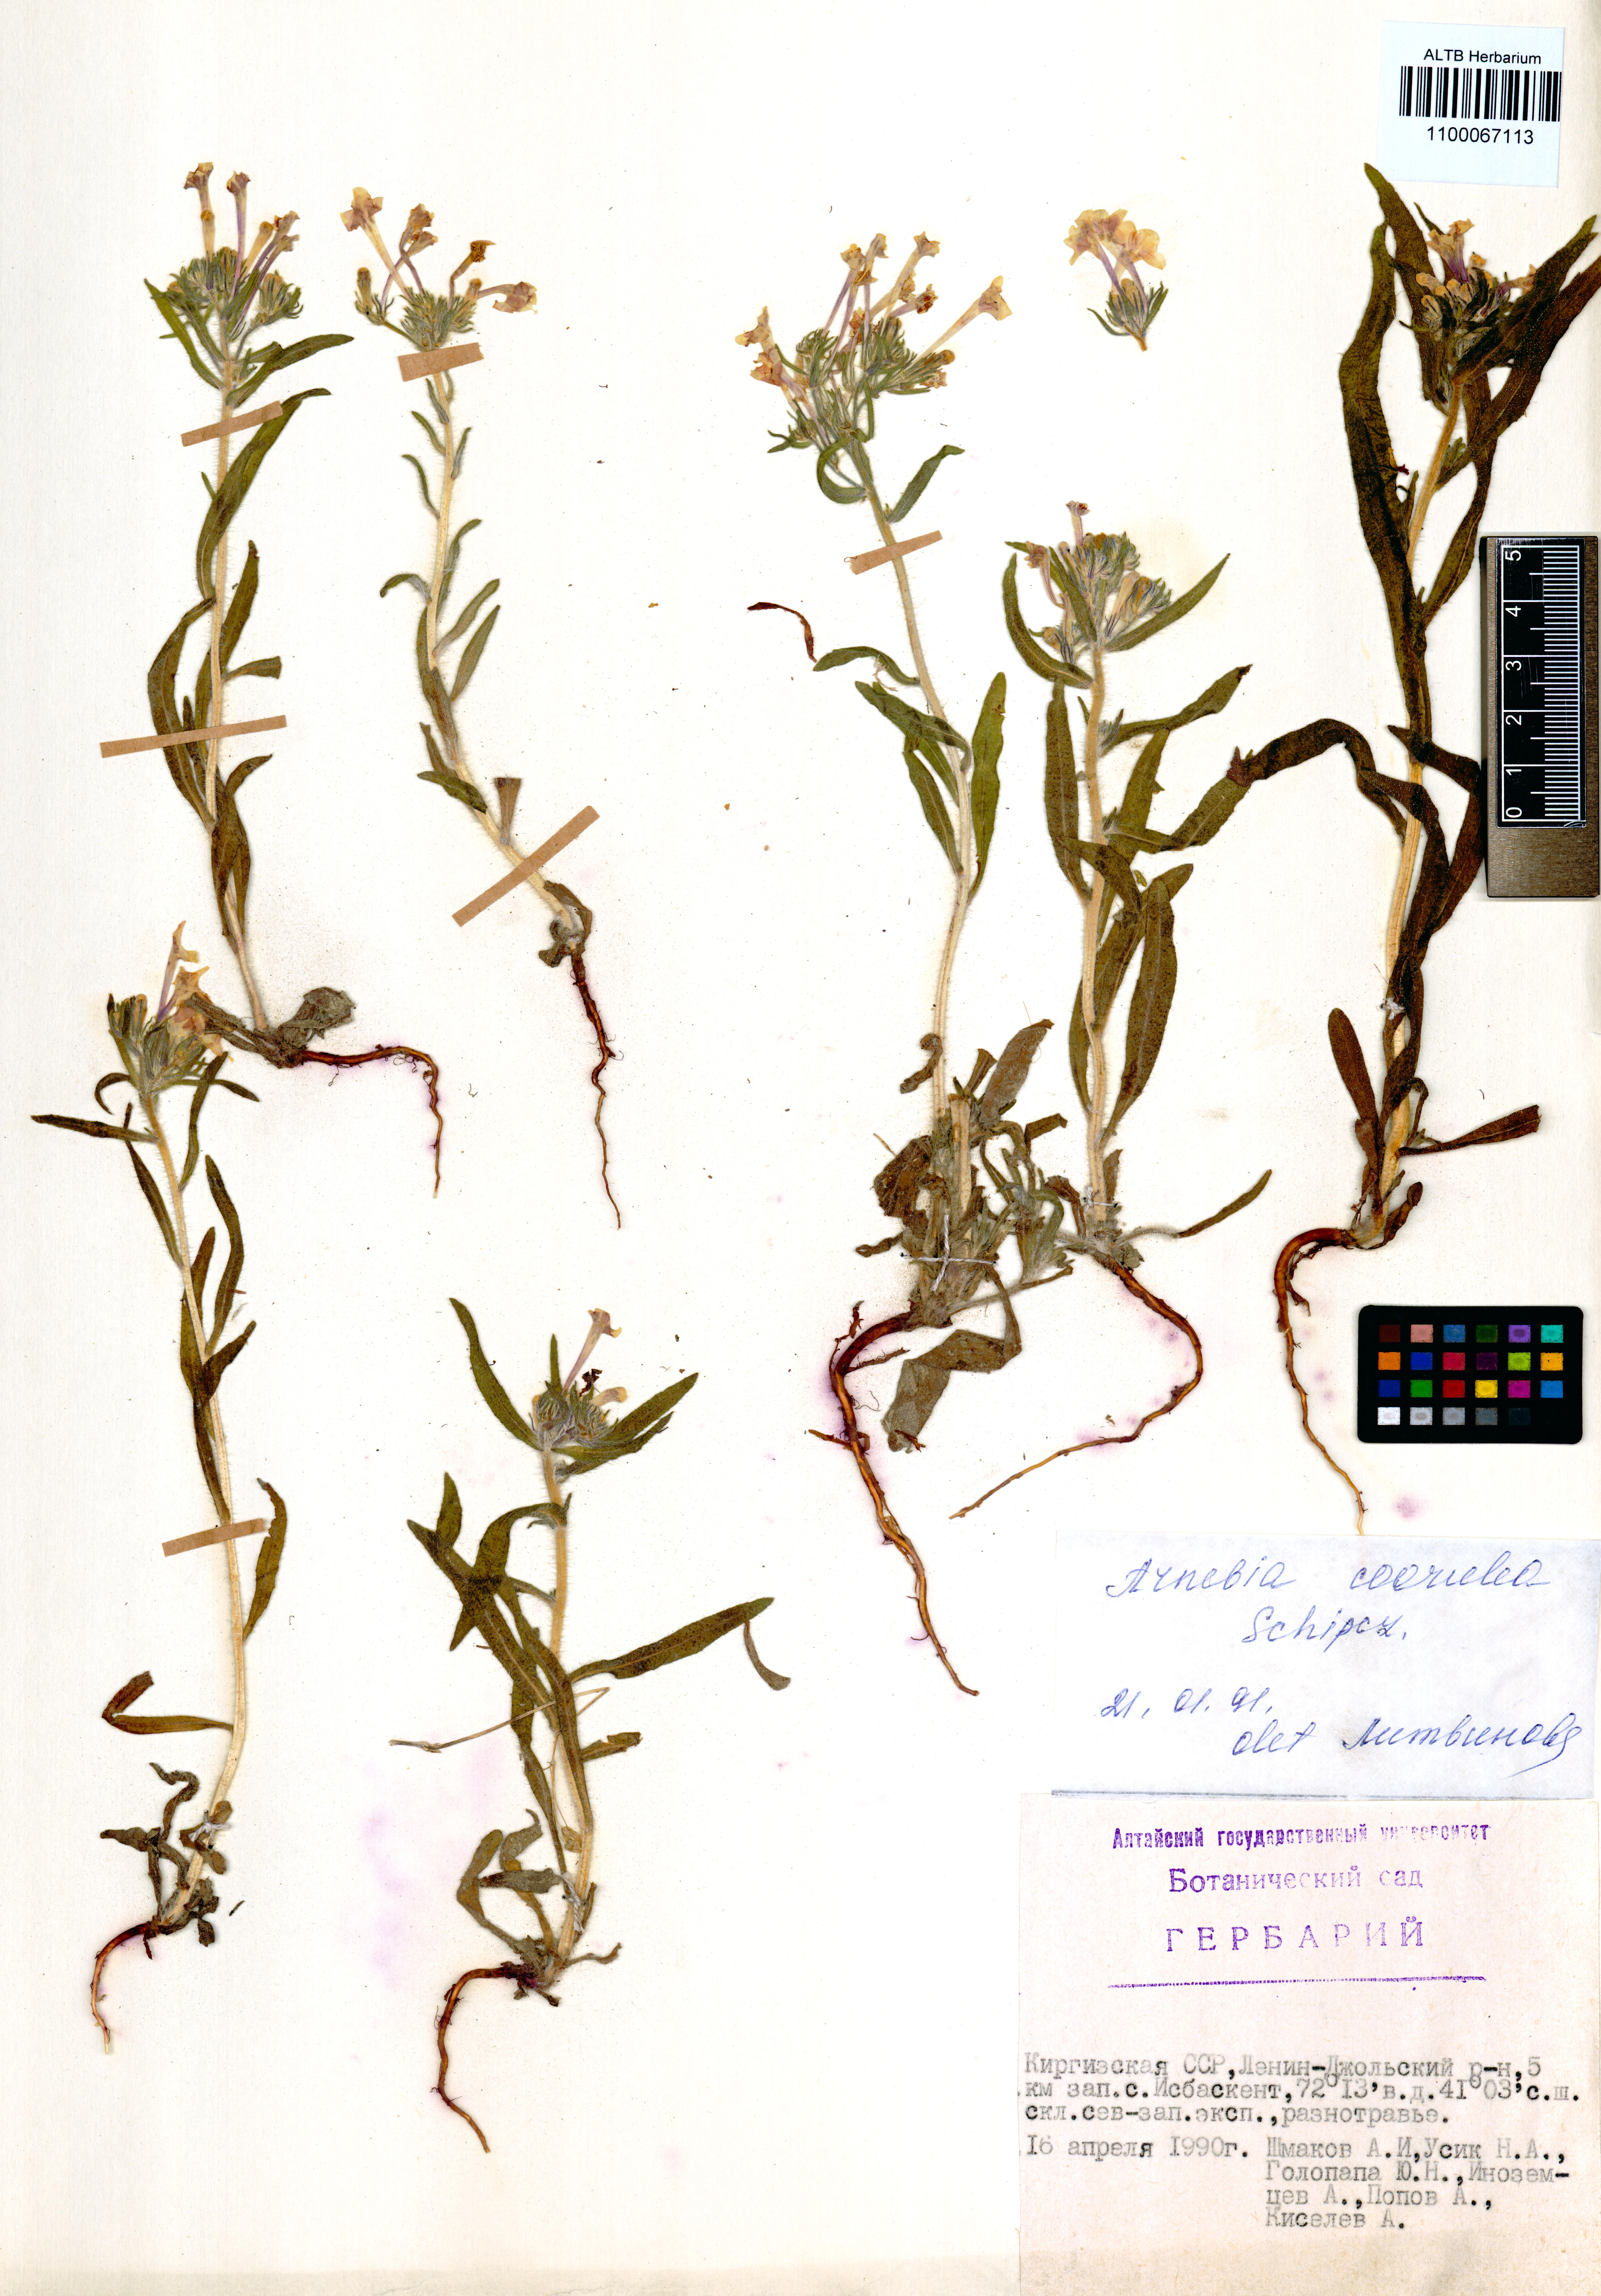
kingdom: Plantae
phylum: Tracheophyta
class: Magnoliopsida
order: Boraginales
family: Boraginaceae
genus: Arnebia
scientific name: Arnebia coerulea
